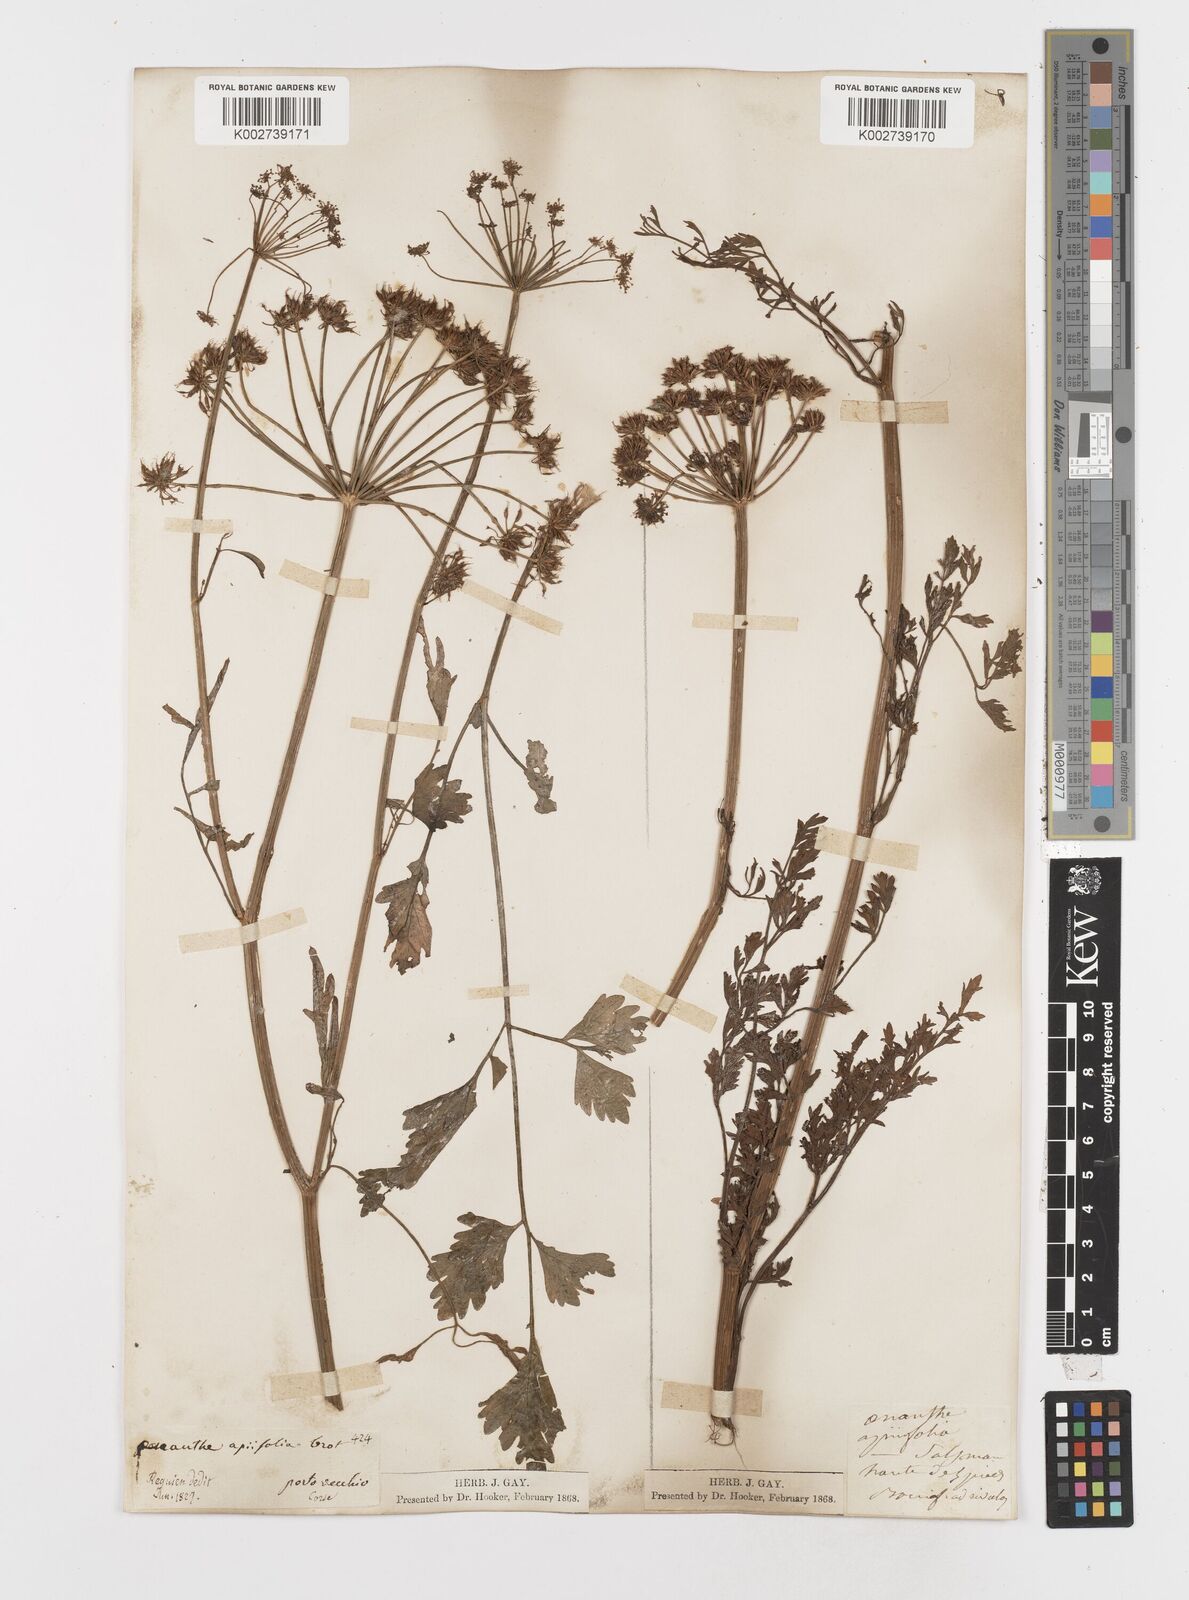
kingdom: Plantae
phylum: Tracheophyta
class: Magnoliopsida
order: Apiales
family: Apiaceae
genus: Oenanthe
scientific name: Oenanthe crocata
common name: Hemlock water-dropwort
